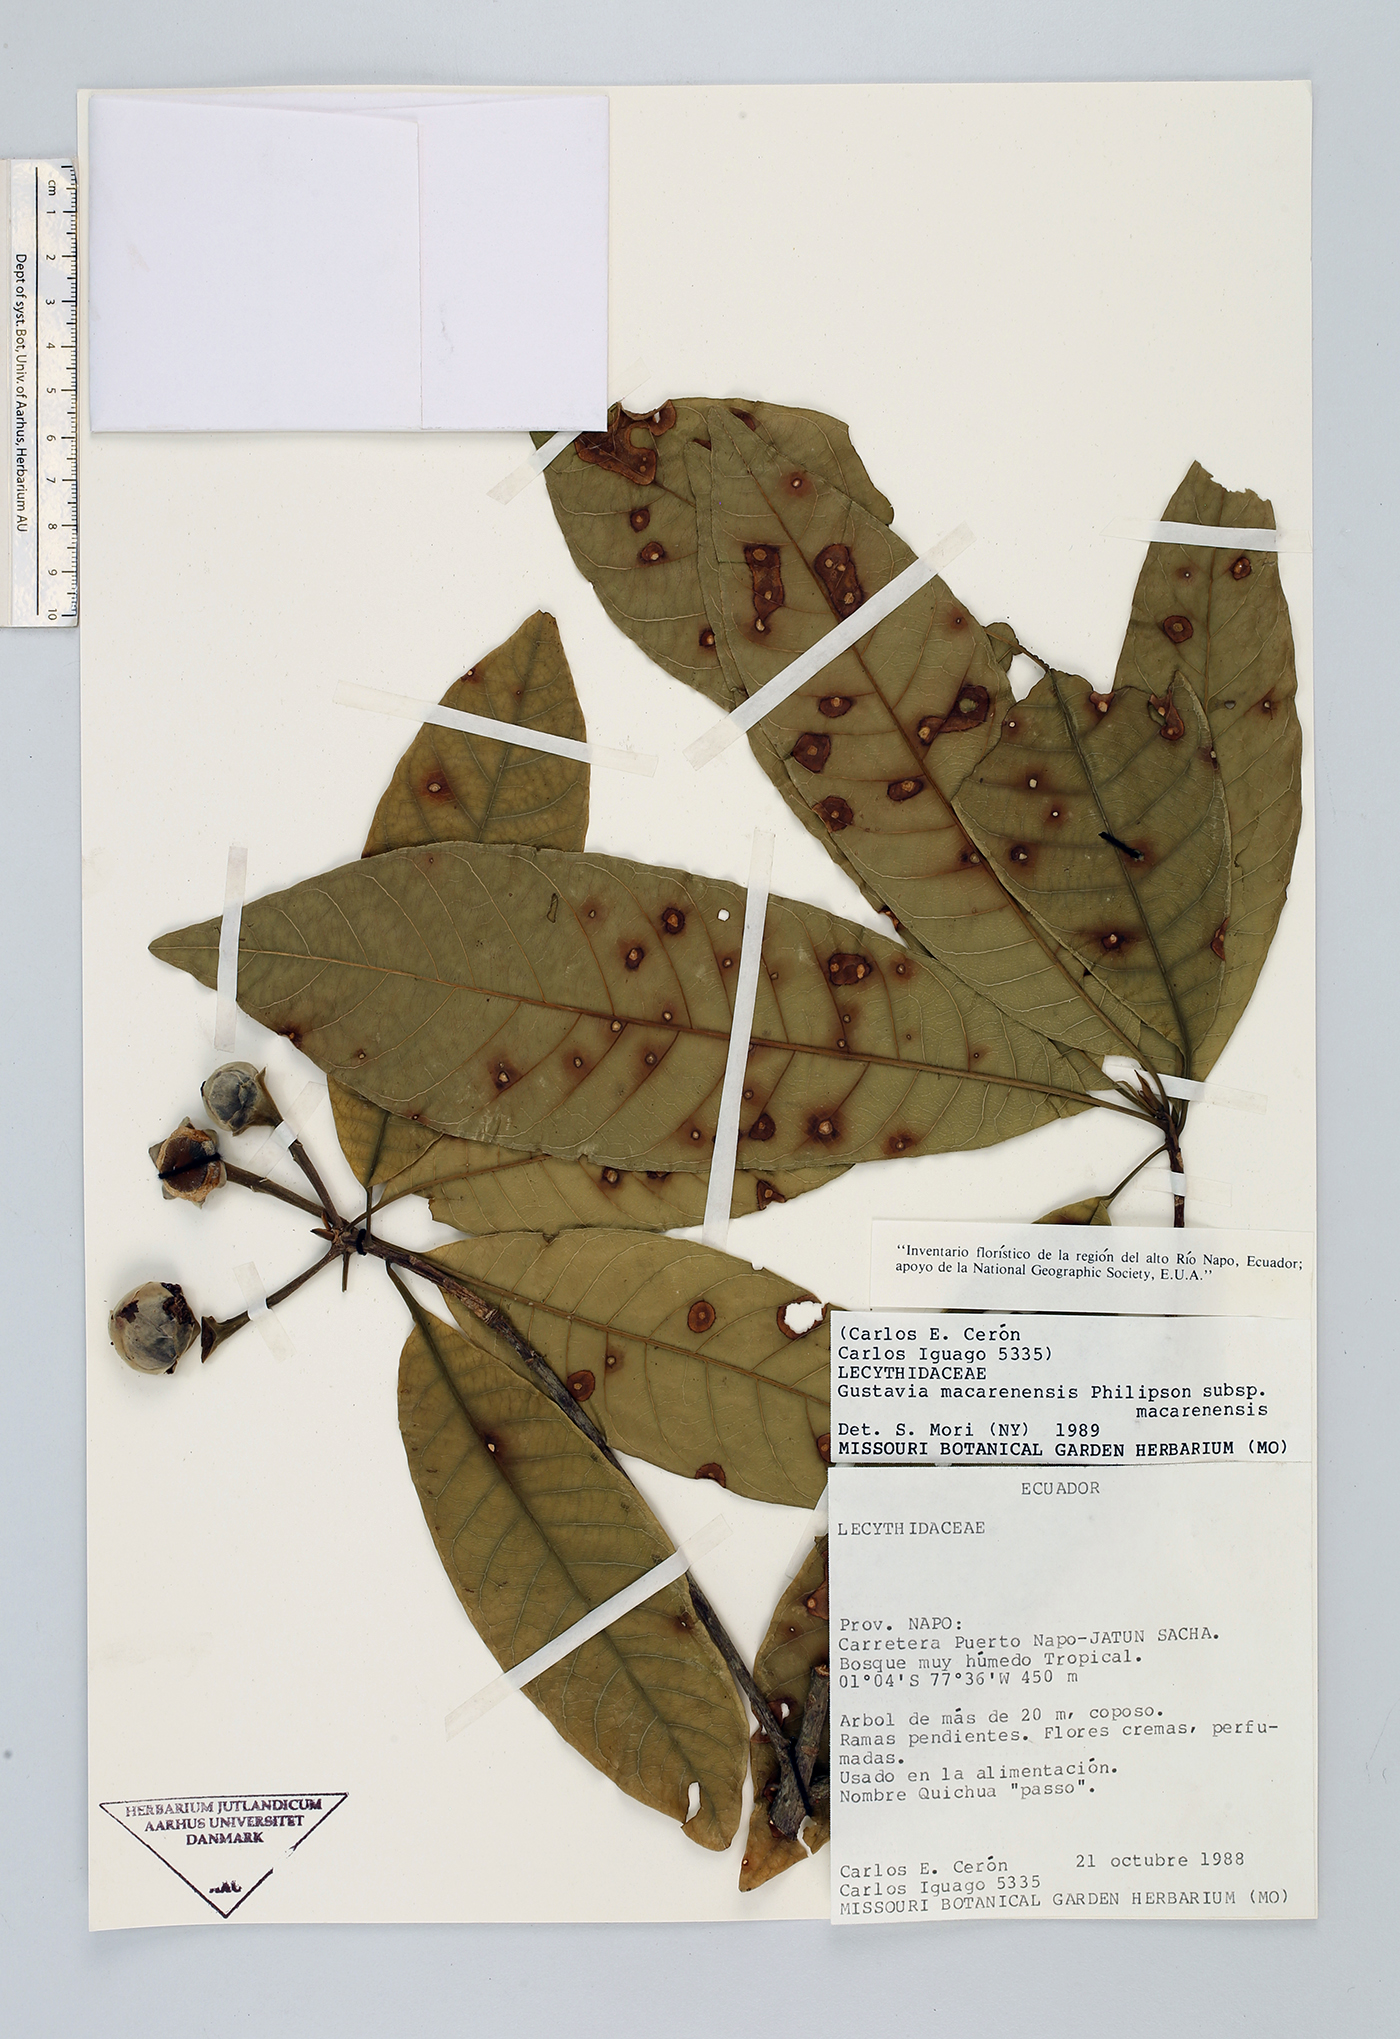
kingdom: Plantae
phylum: Tracheophyta
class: Magnoliopsida
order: Ericales
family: Lecythidaceae
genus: Gustavia
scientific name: Gustavia macarenensis
